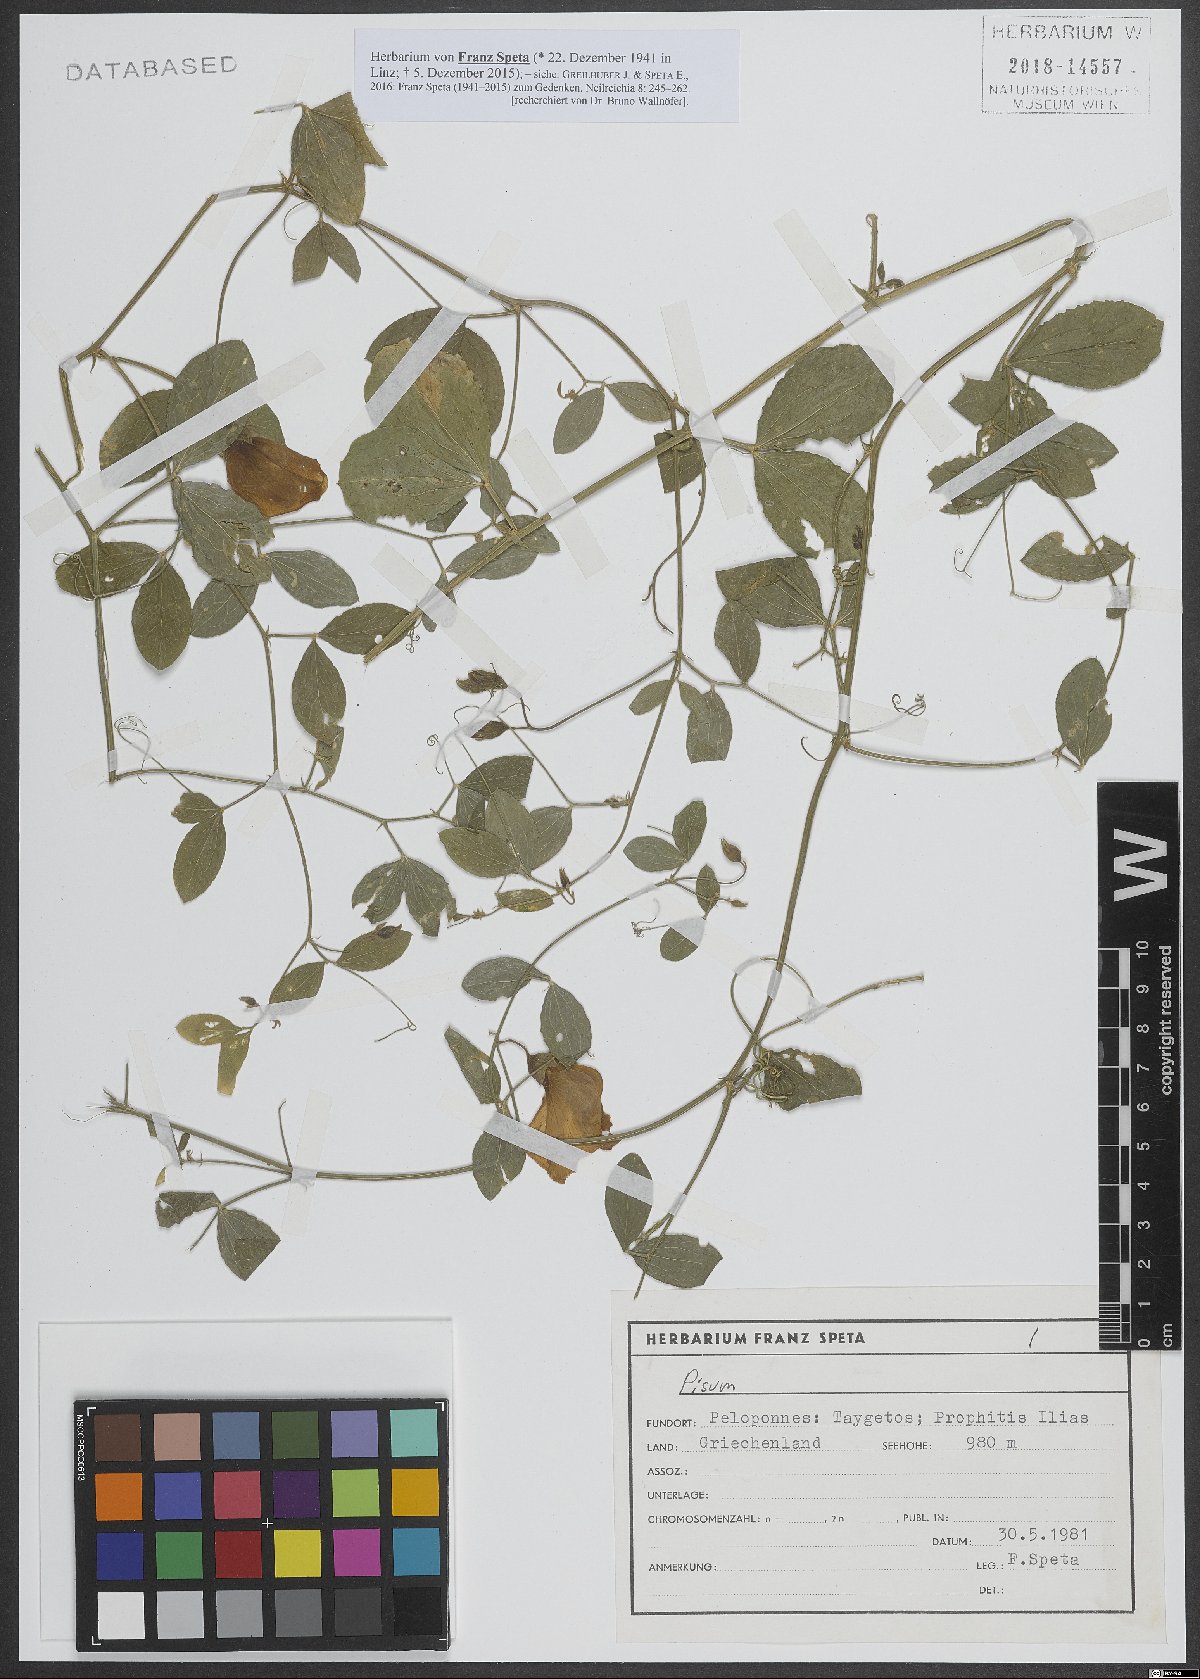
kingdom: Animalia
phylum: Mollusca
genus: Pisum
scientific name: Pisum
